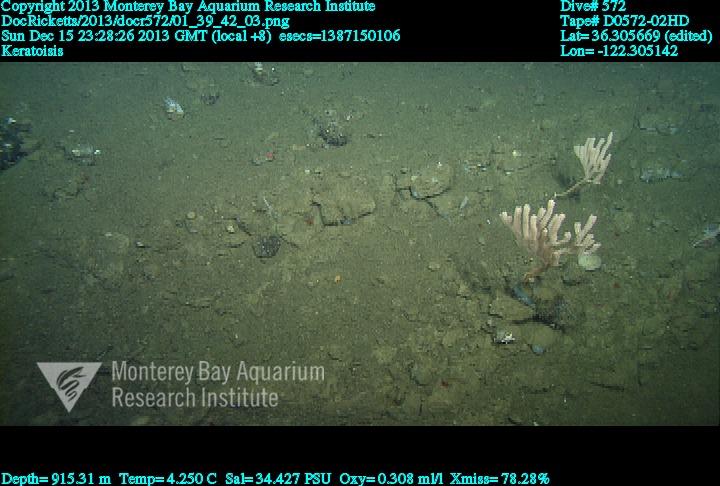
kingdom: Animalia
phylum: Cnidaria
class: Anthozoa
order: Scleralcyonacea
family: Keratoisididae
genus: Keratoisis
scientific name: Keratoisis
